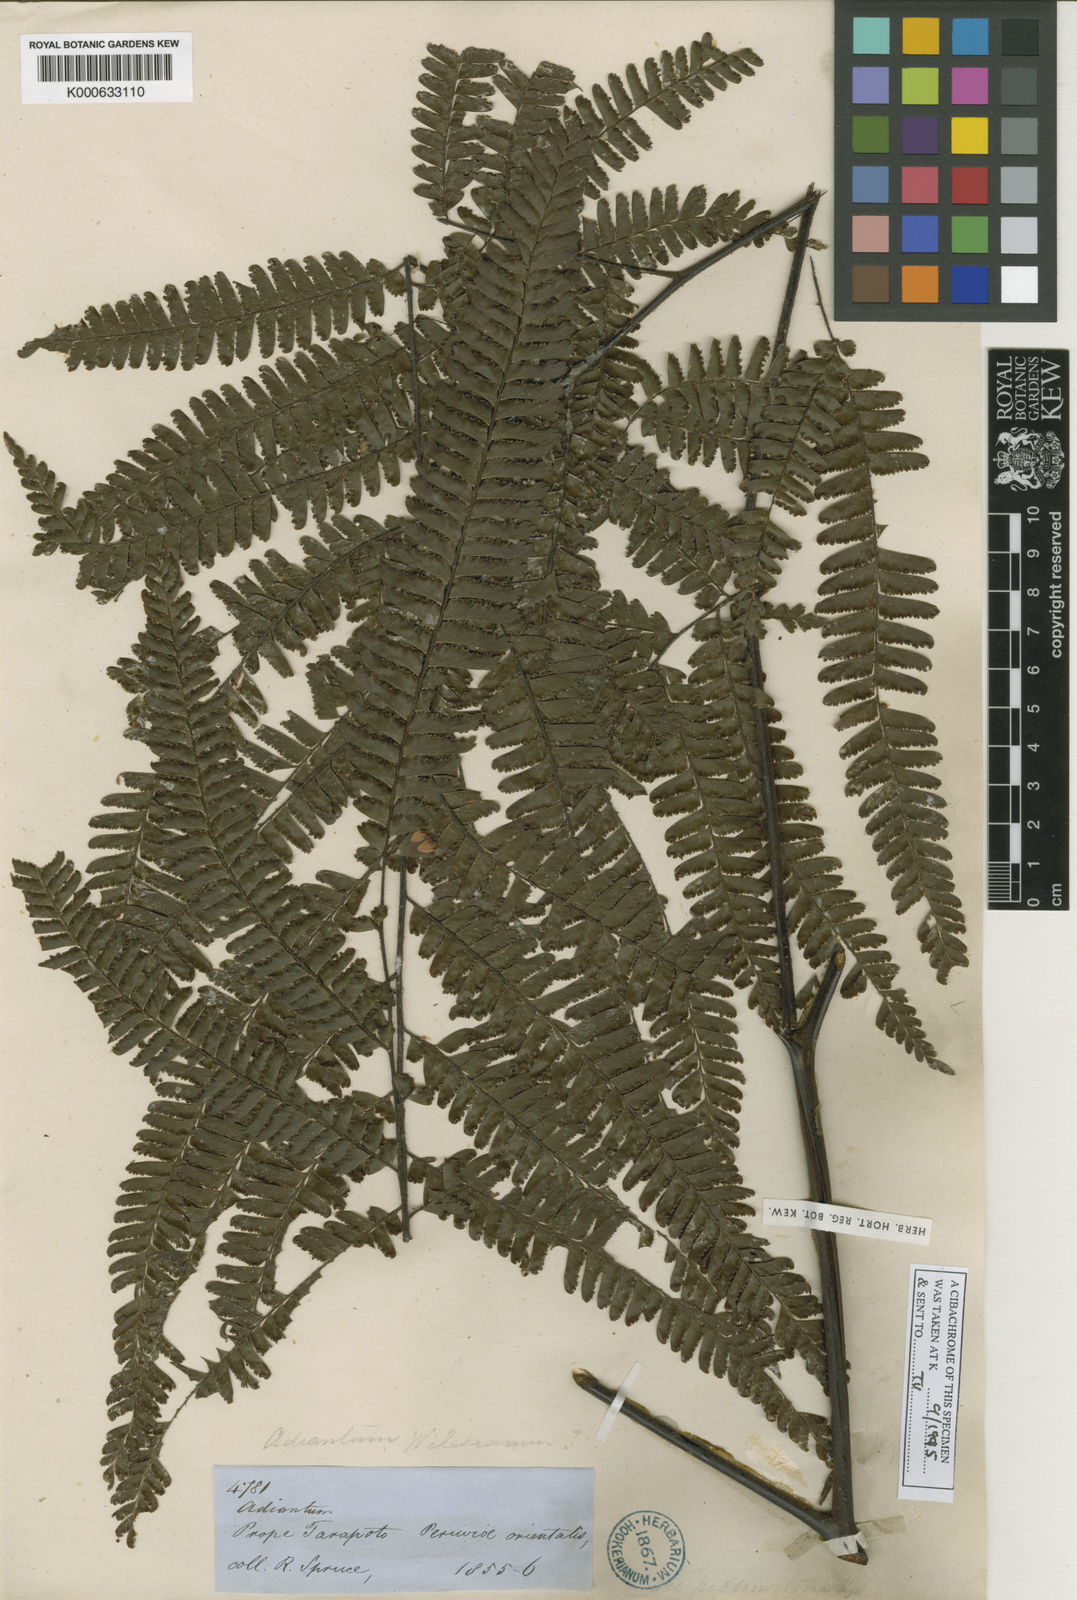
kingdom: Plantae
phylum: Tracheophyta
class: Polypodiopsida
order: Polypodiales
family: Pteridaceae
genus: Adiantum
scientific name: Adiantum
